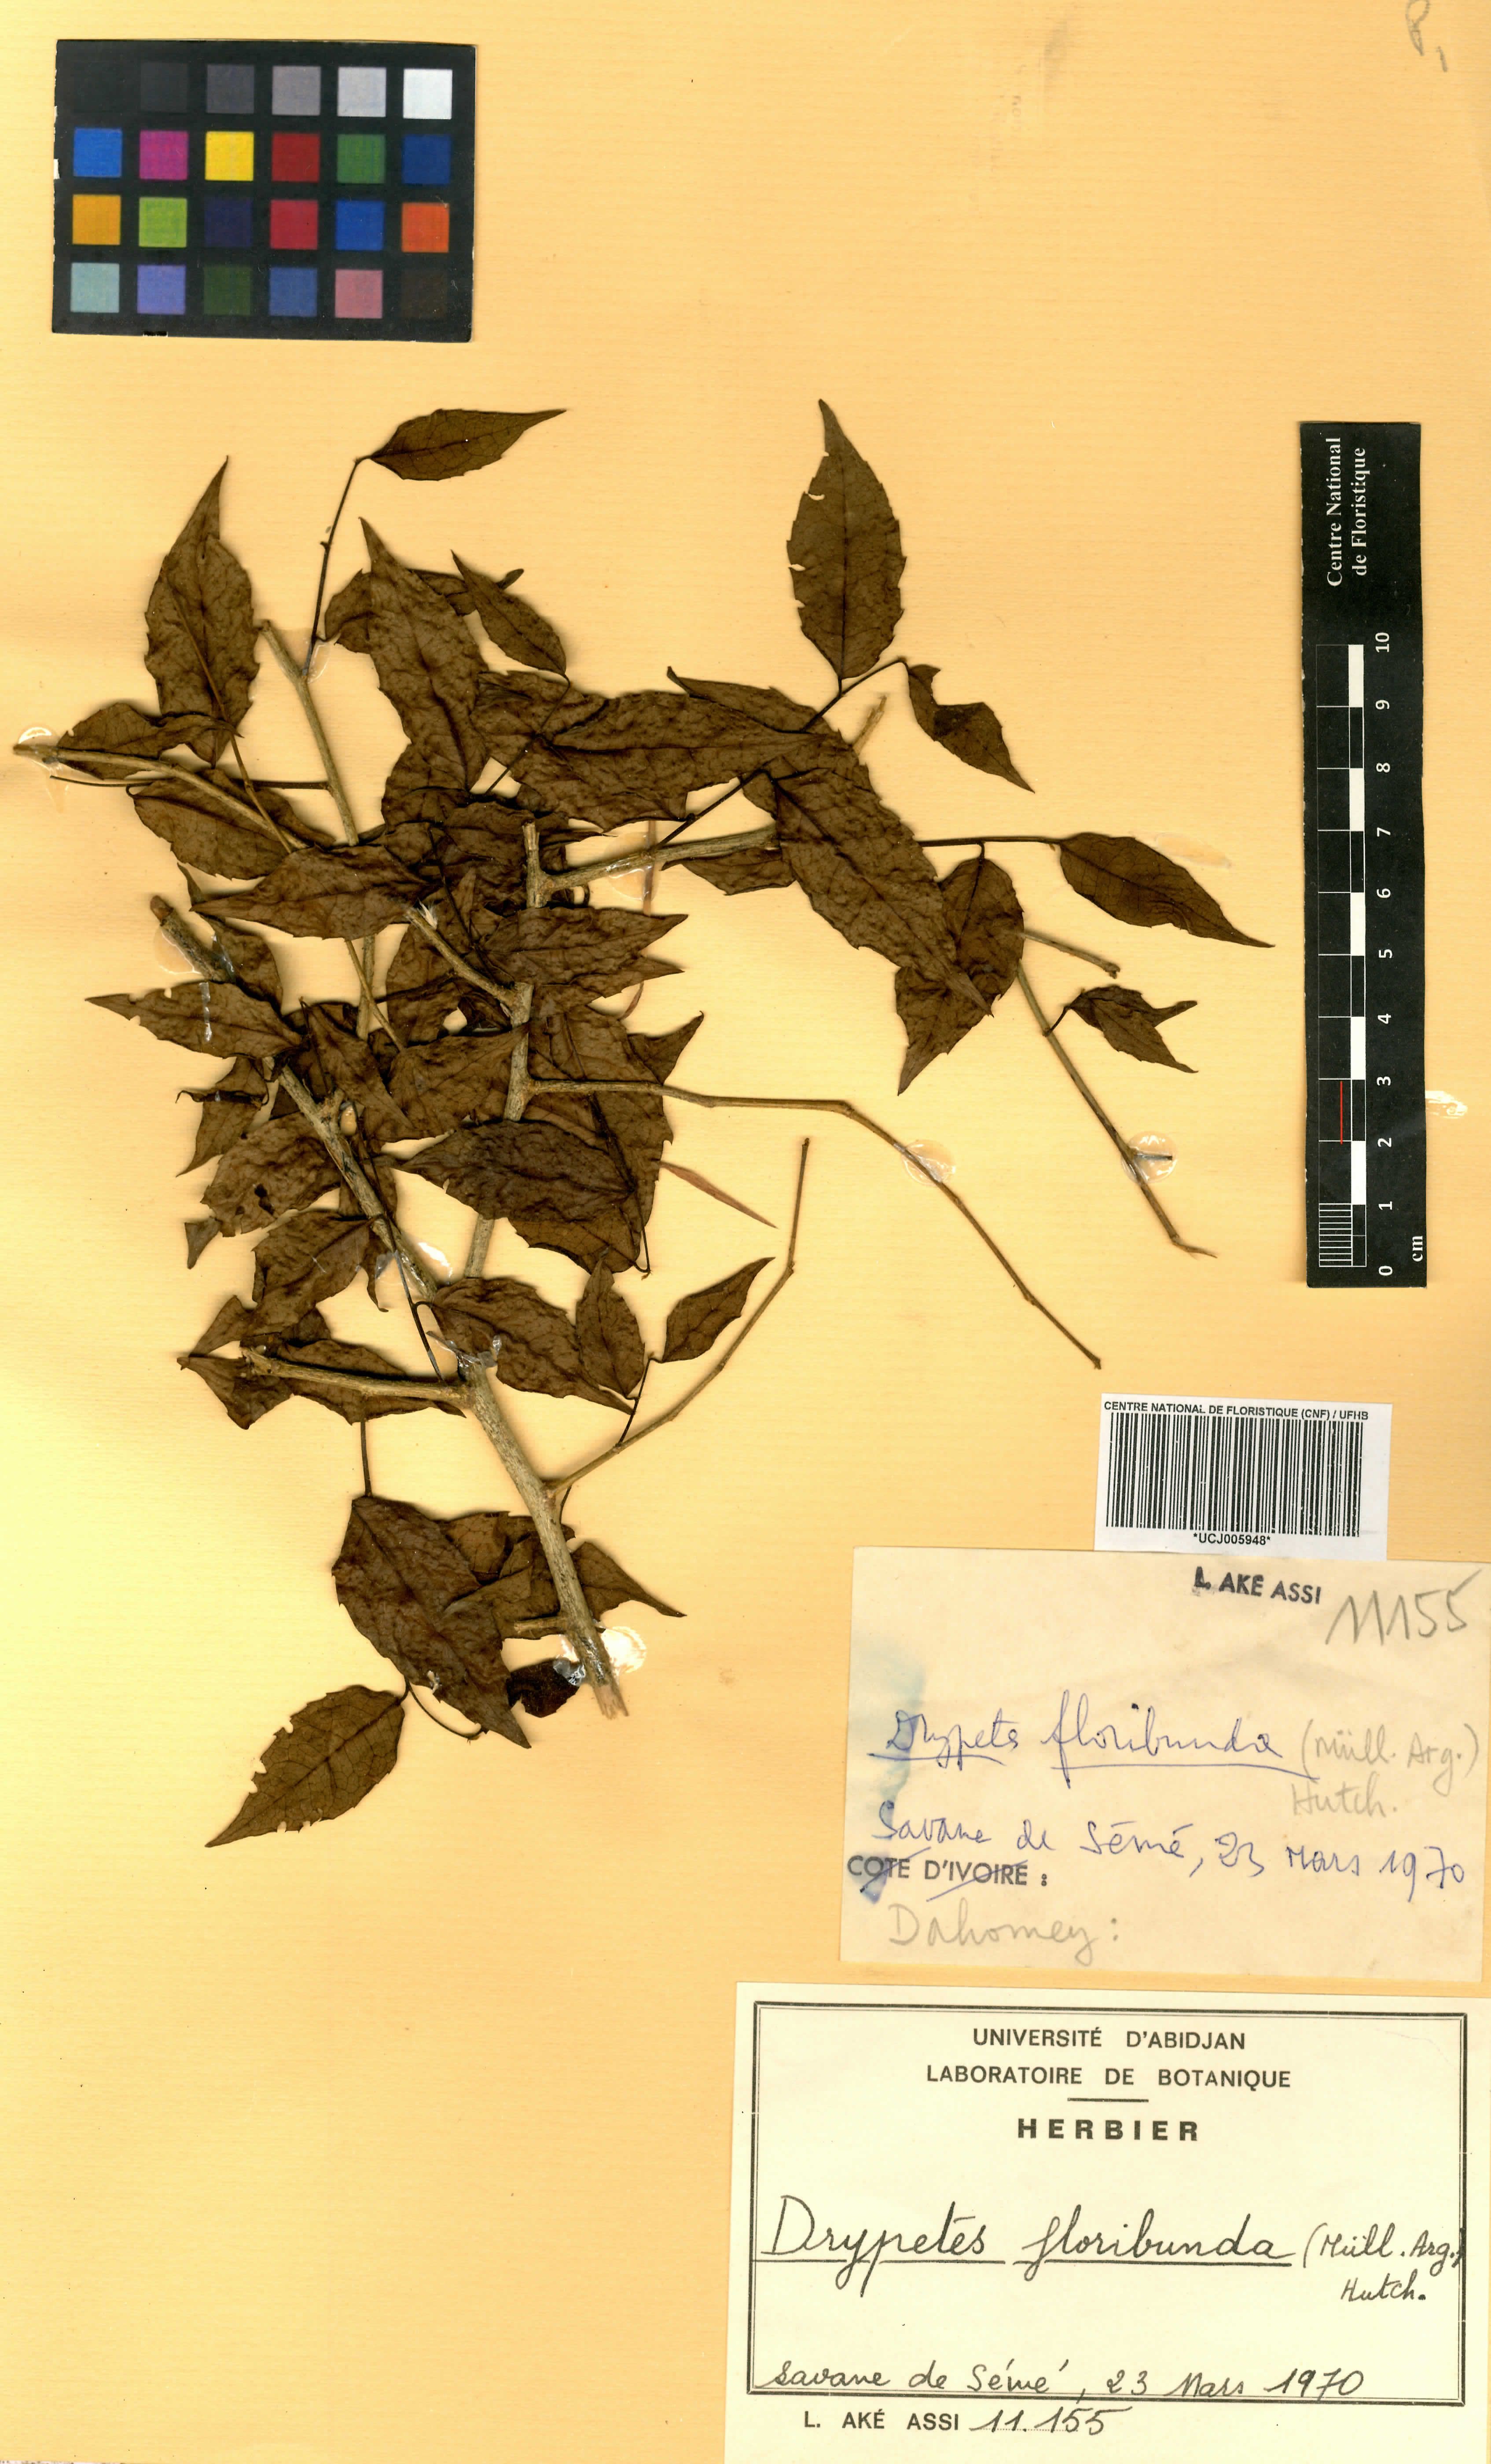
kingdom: Plantae
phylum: Tracheophyta
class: Magnoliopsida
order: Malpighiales
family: Putranjivaceae
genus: Drypetes
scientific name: Drypetes floribunda
